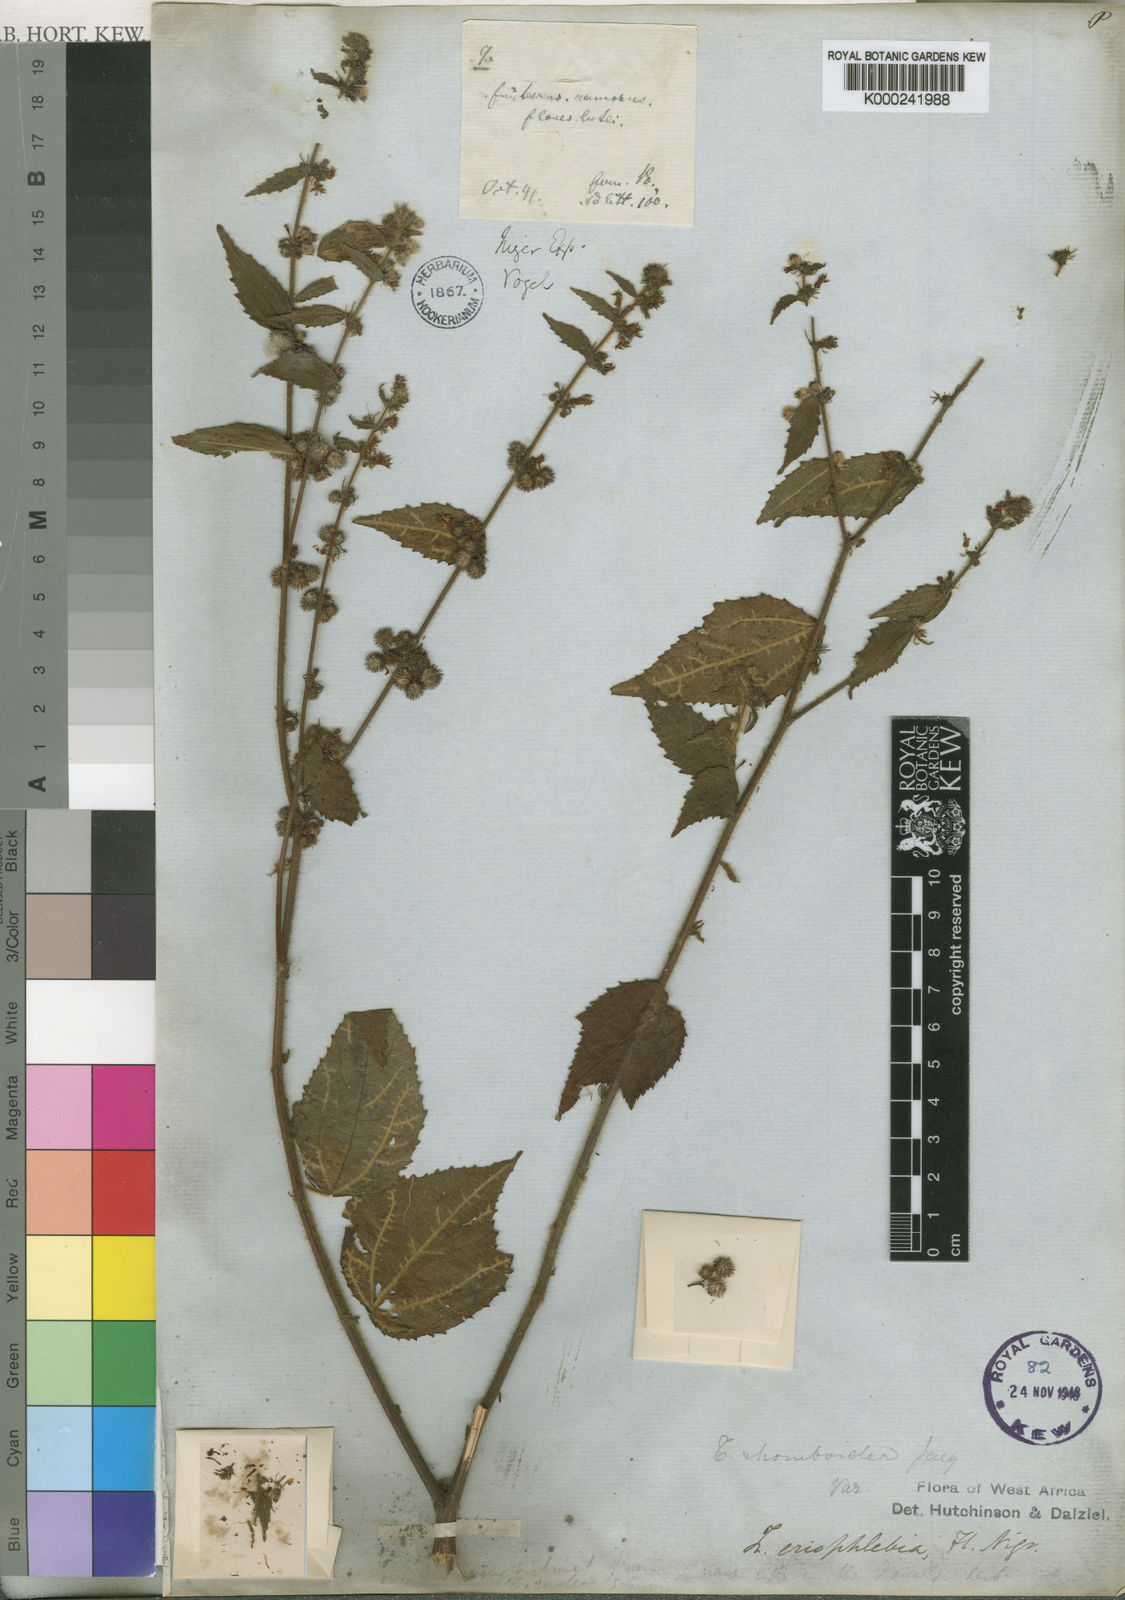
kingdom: Plantae
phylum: Tracheophyta
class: Magnoliopsida
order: Malvales
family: Malvaceae
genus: Triumfetta
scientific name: Triumfetta eriophlebia
